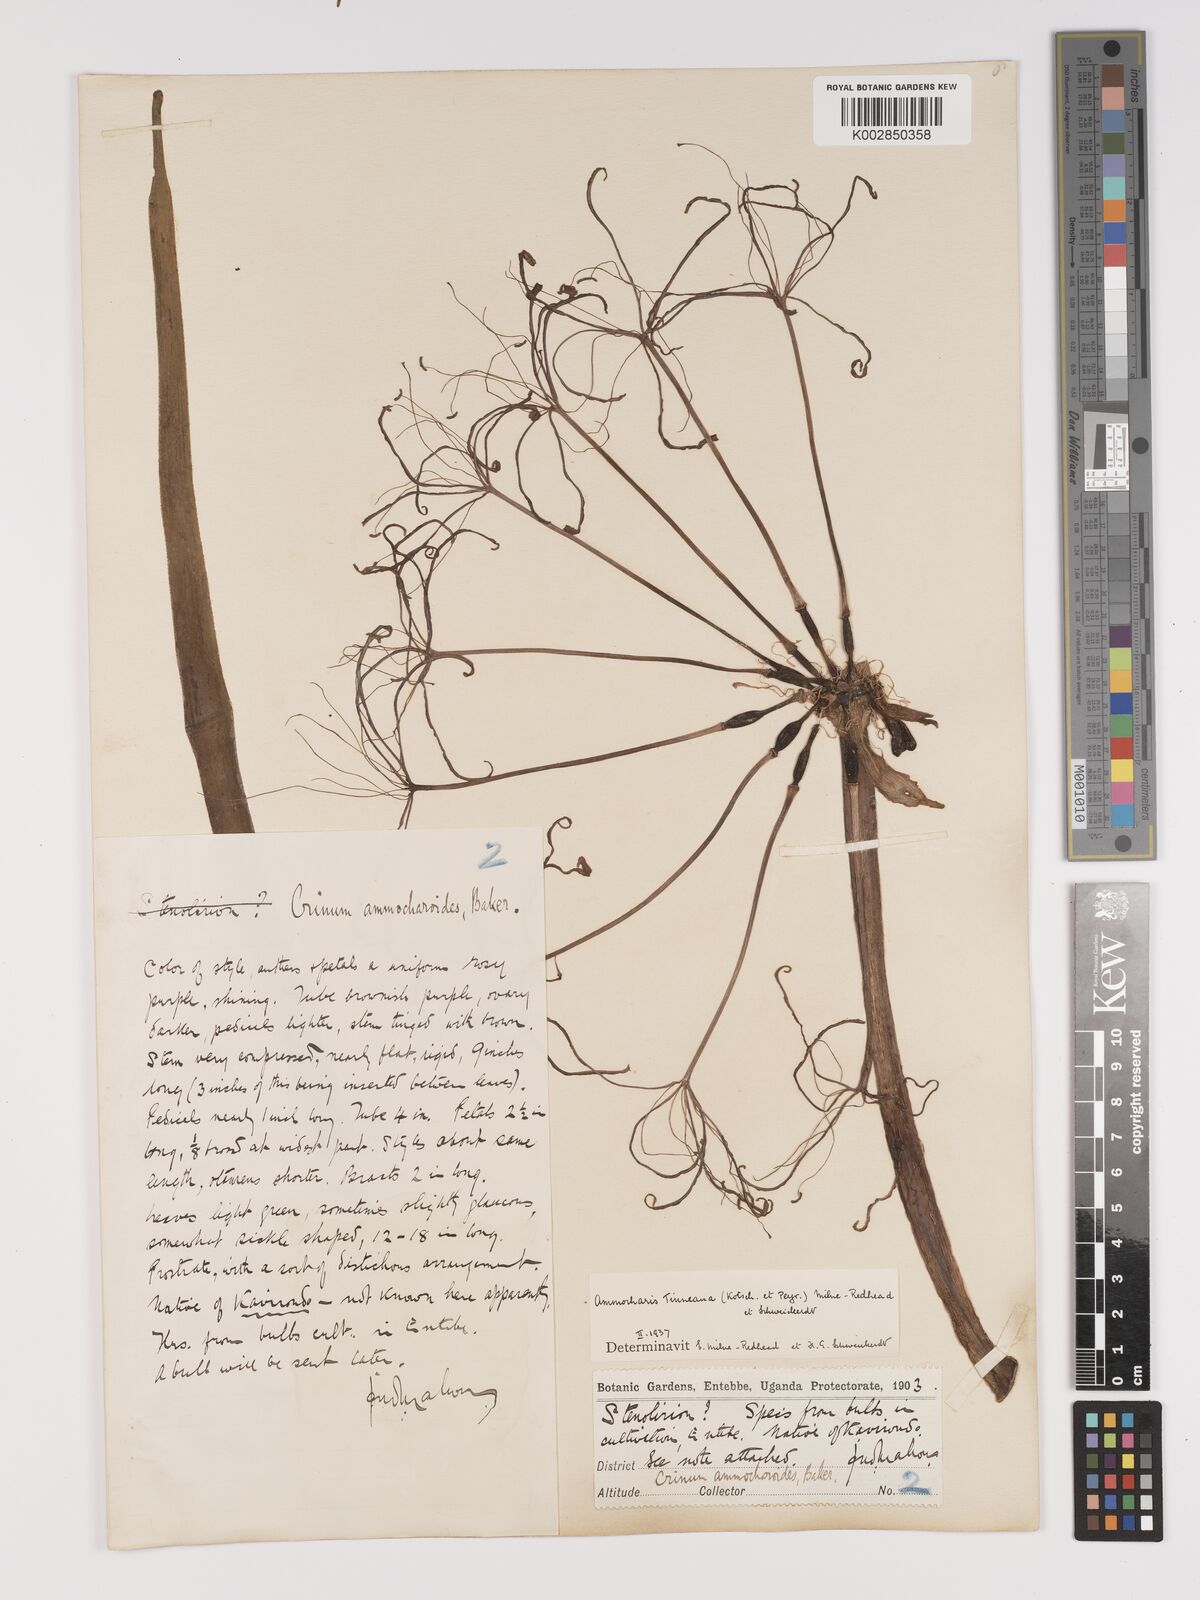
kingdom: Plantae
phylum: Tracheophyta
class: Liliopsida
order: Asparagales
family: Amaryllidaceae
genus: Ammocharis
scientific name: Ammocharis tinneana
